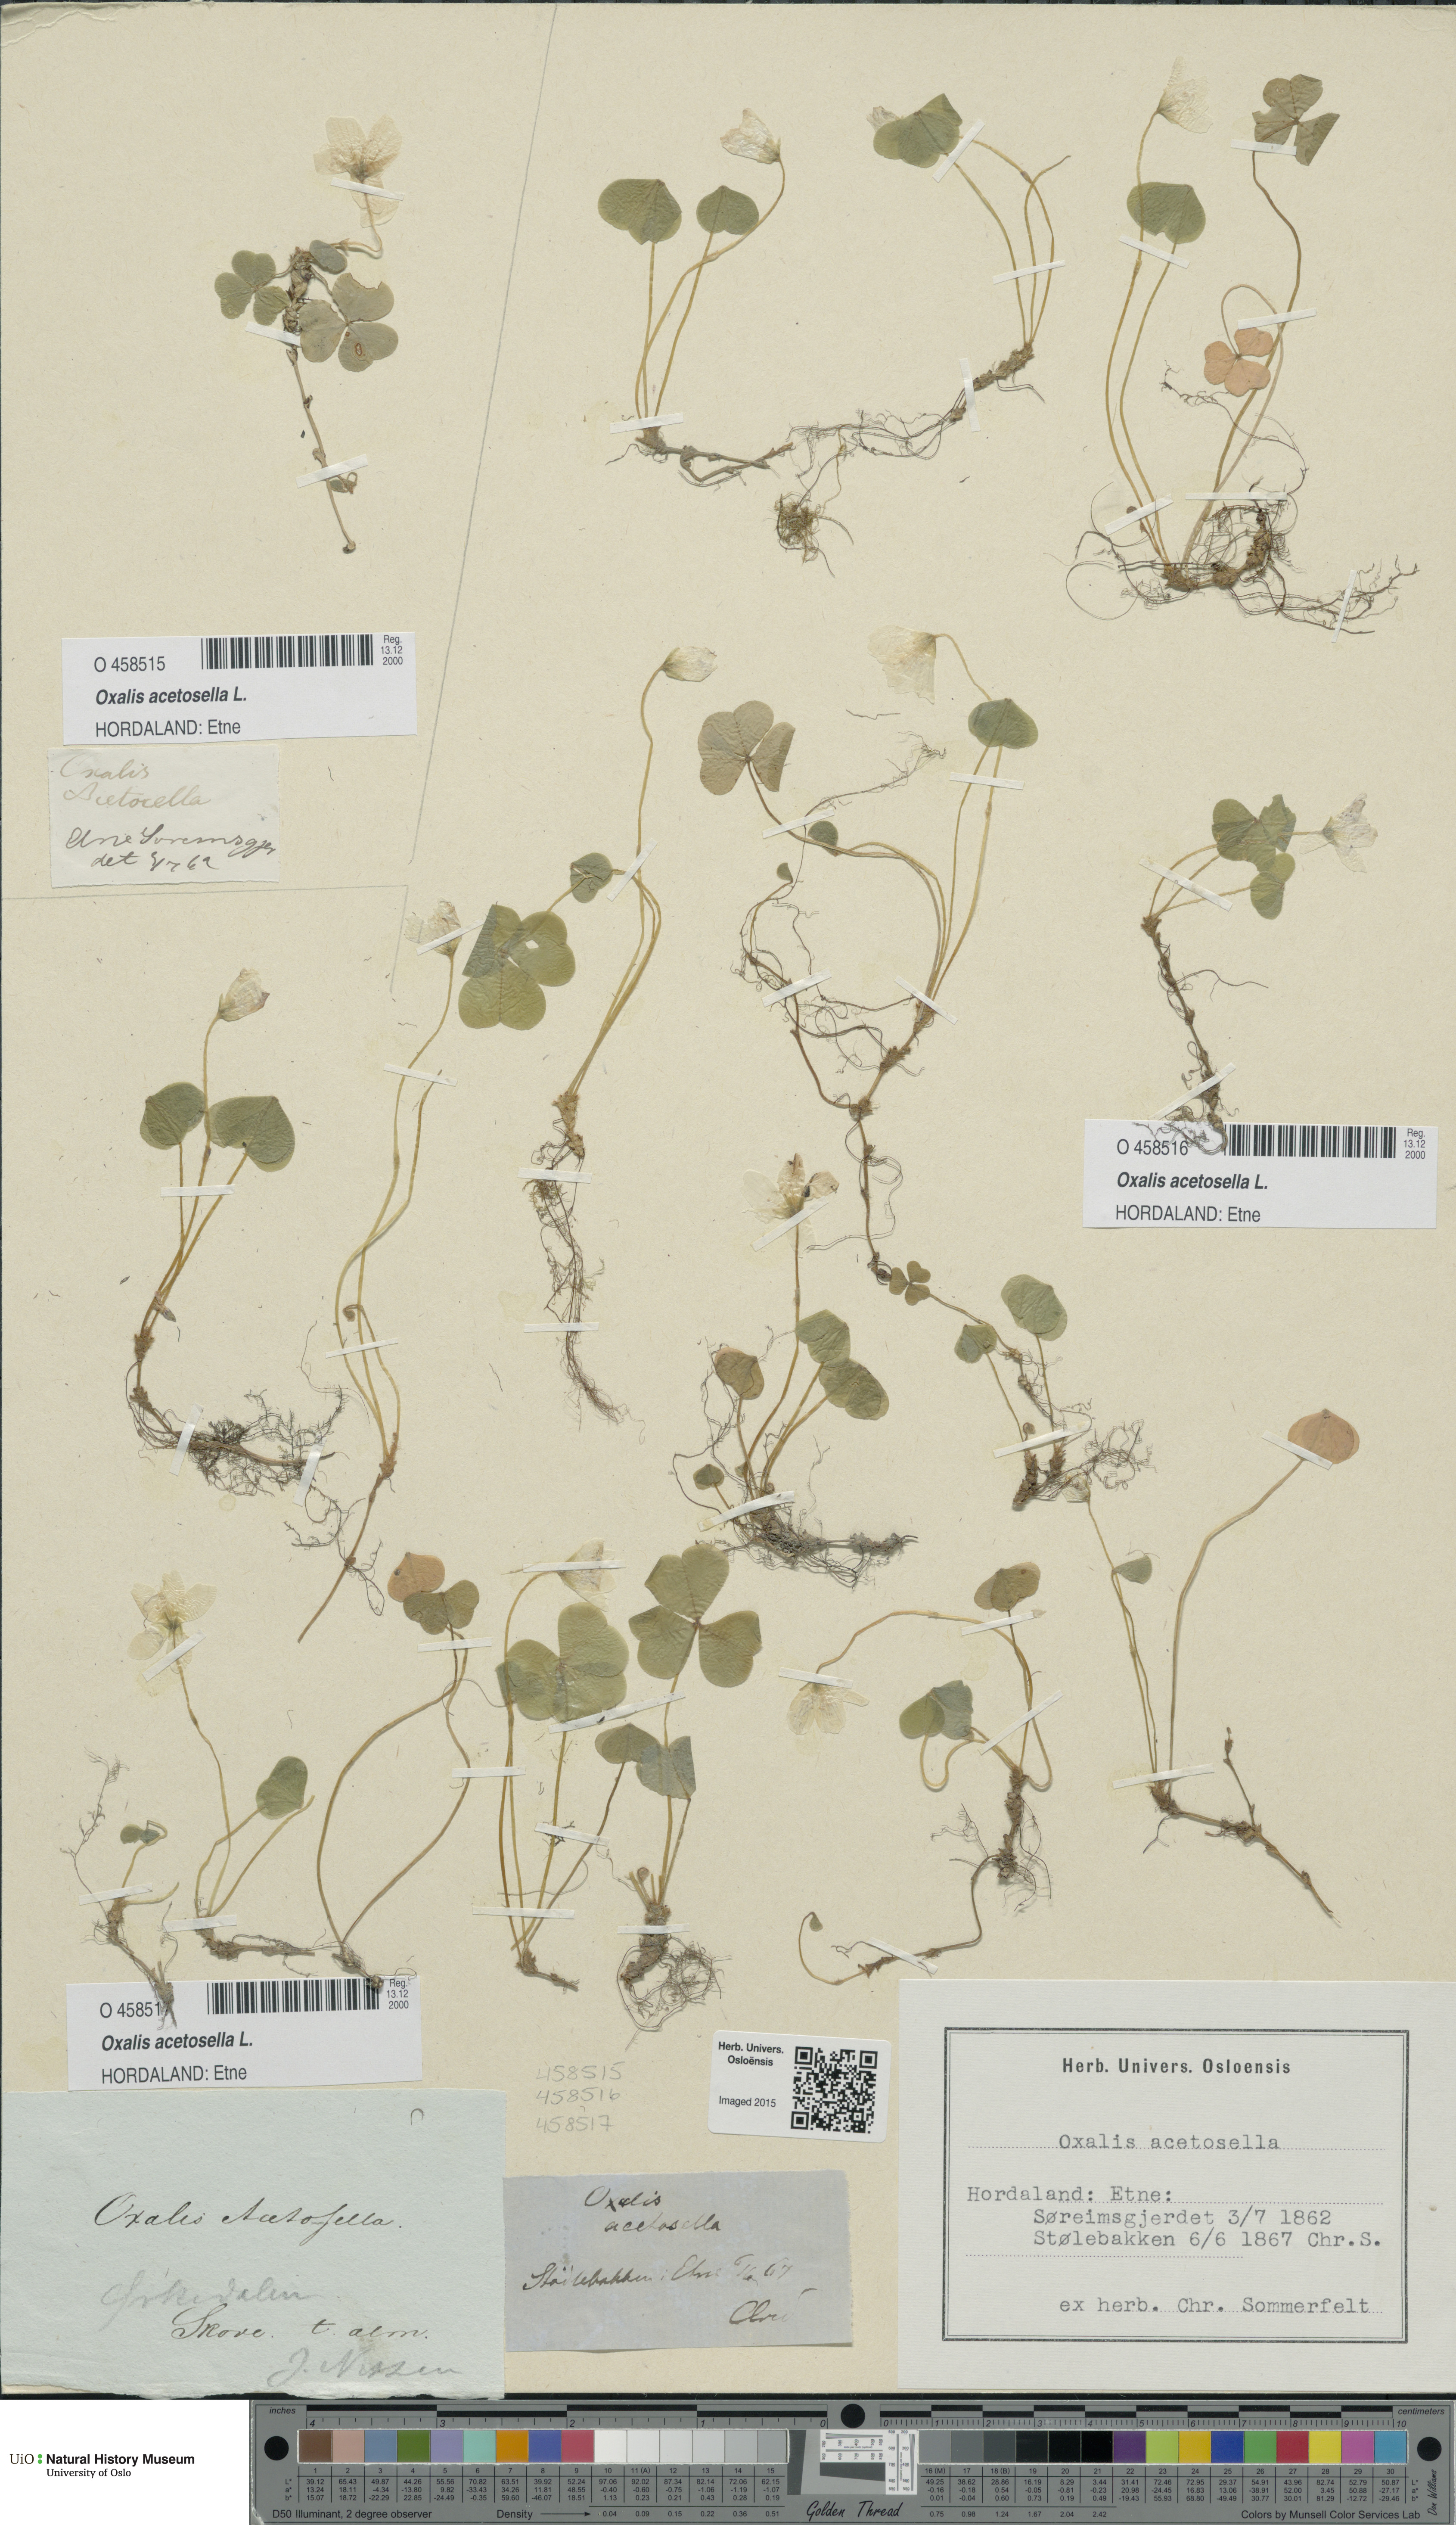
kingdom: Plantae
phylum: Tracheophyta
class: Magnoliopsida
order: Oxalidales
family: Oxalidaceae
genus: Oxalis
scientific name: Oxalis acetosella
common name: Wood-sorrel
